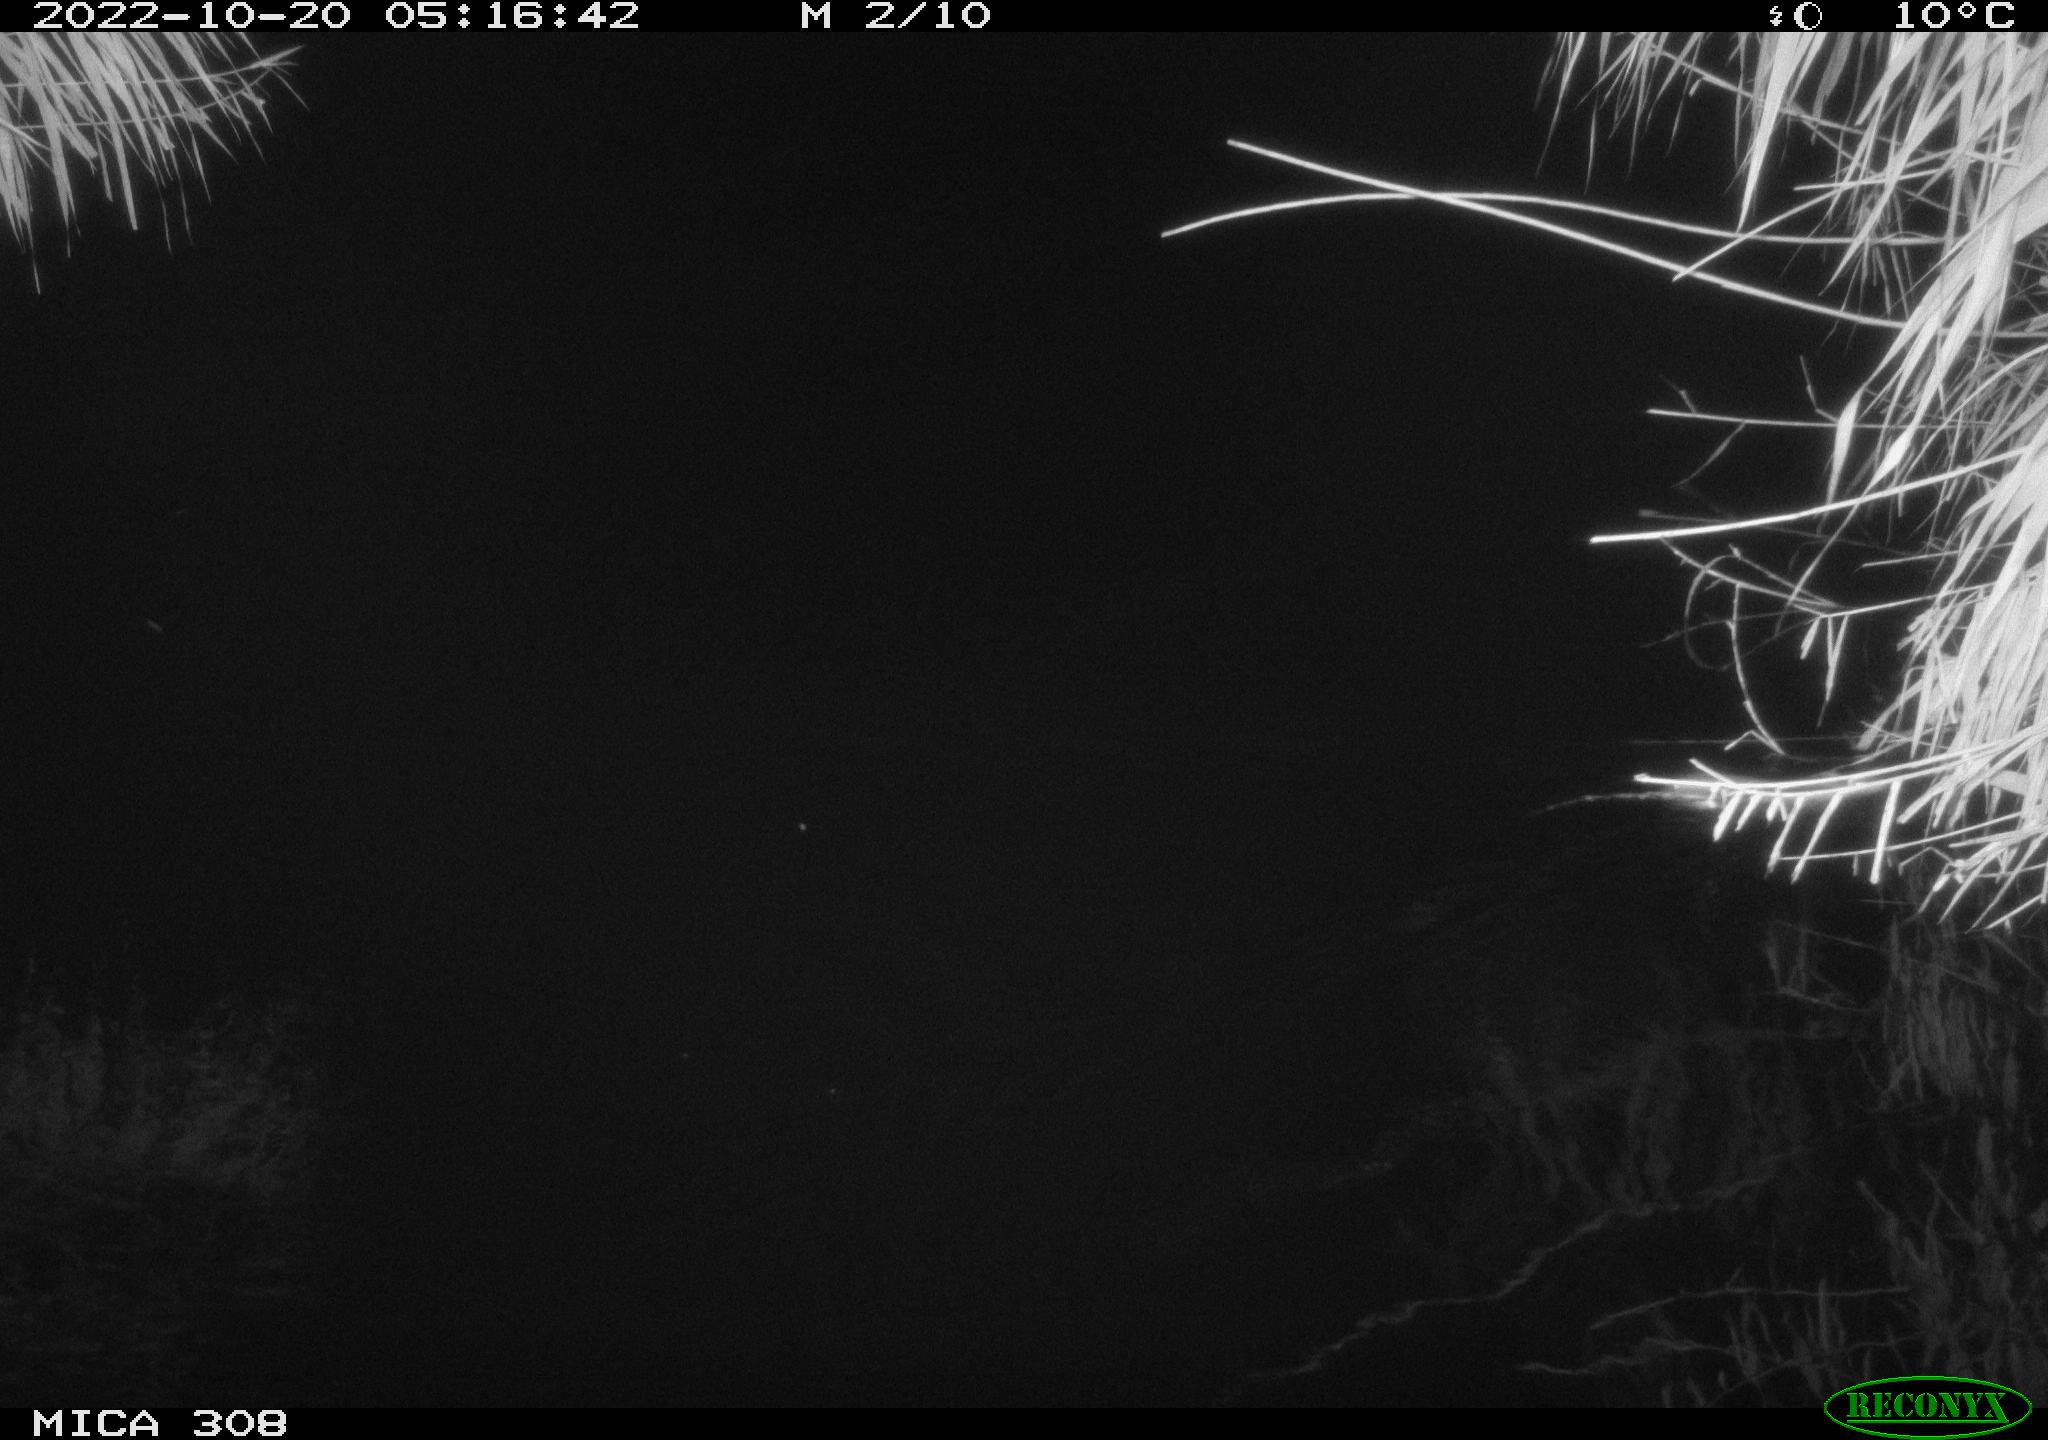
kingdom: Animalia
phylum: Chordata
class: Mammalia
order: Rodentia
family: Muridae
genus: Rattus
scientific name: Rattus norvegicus
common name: Brown rat
